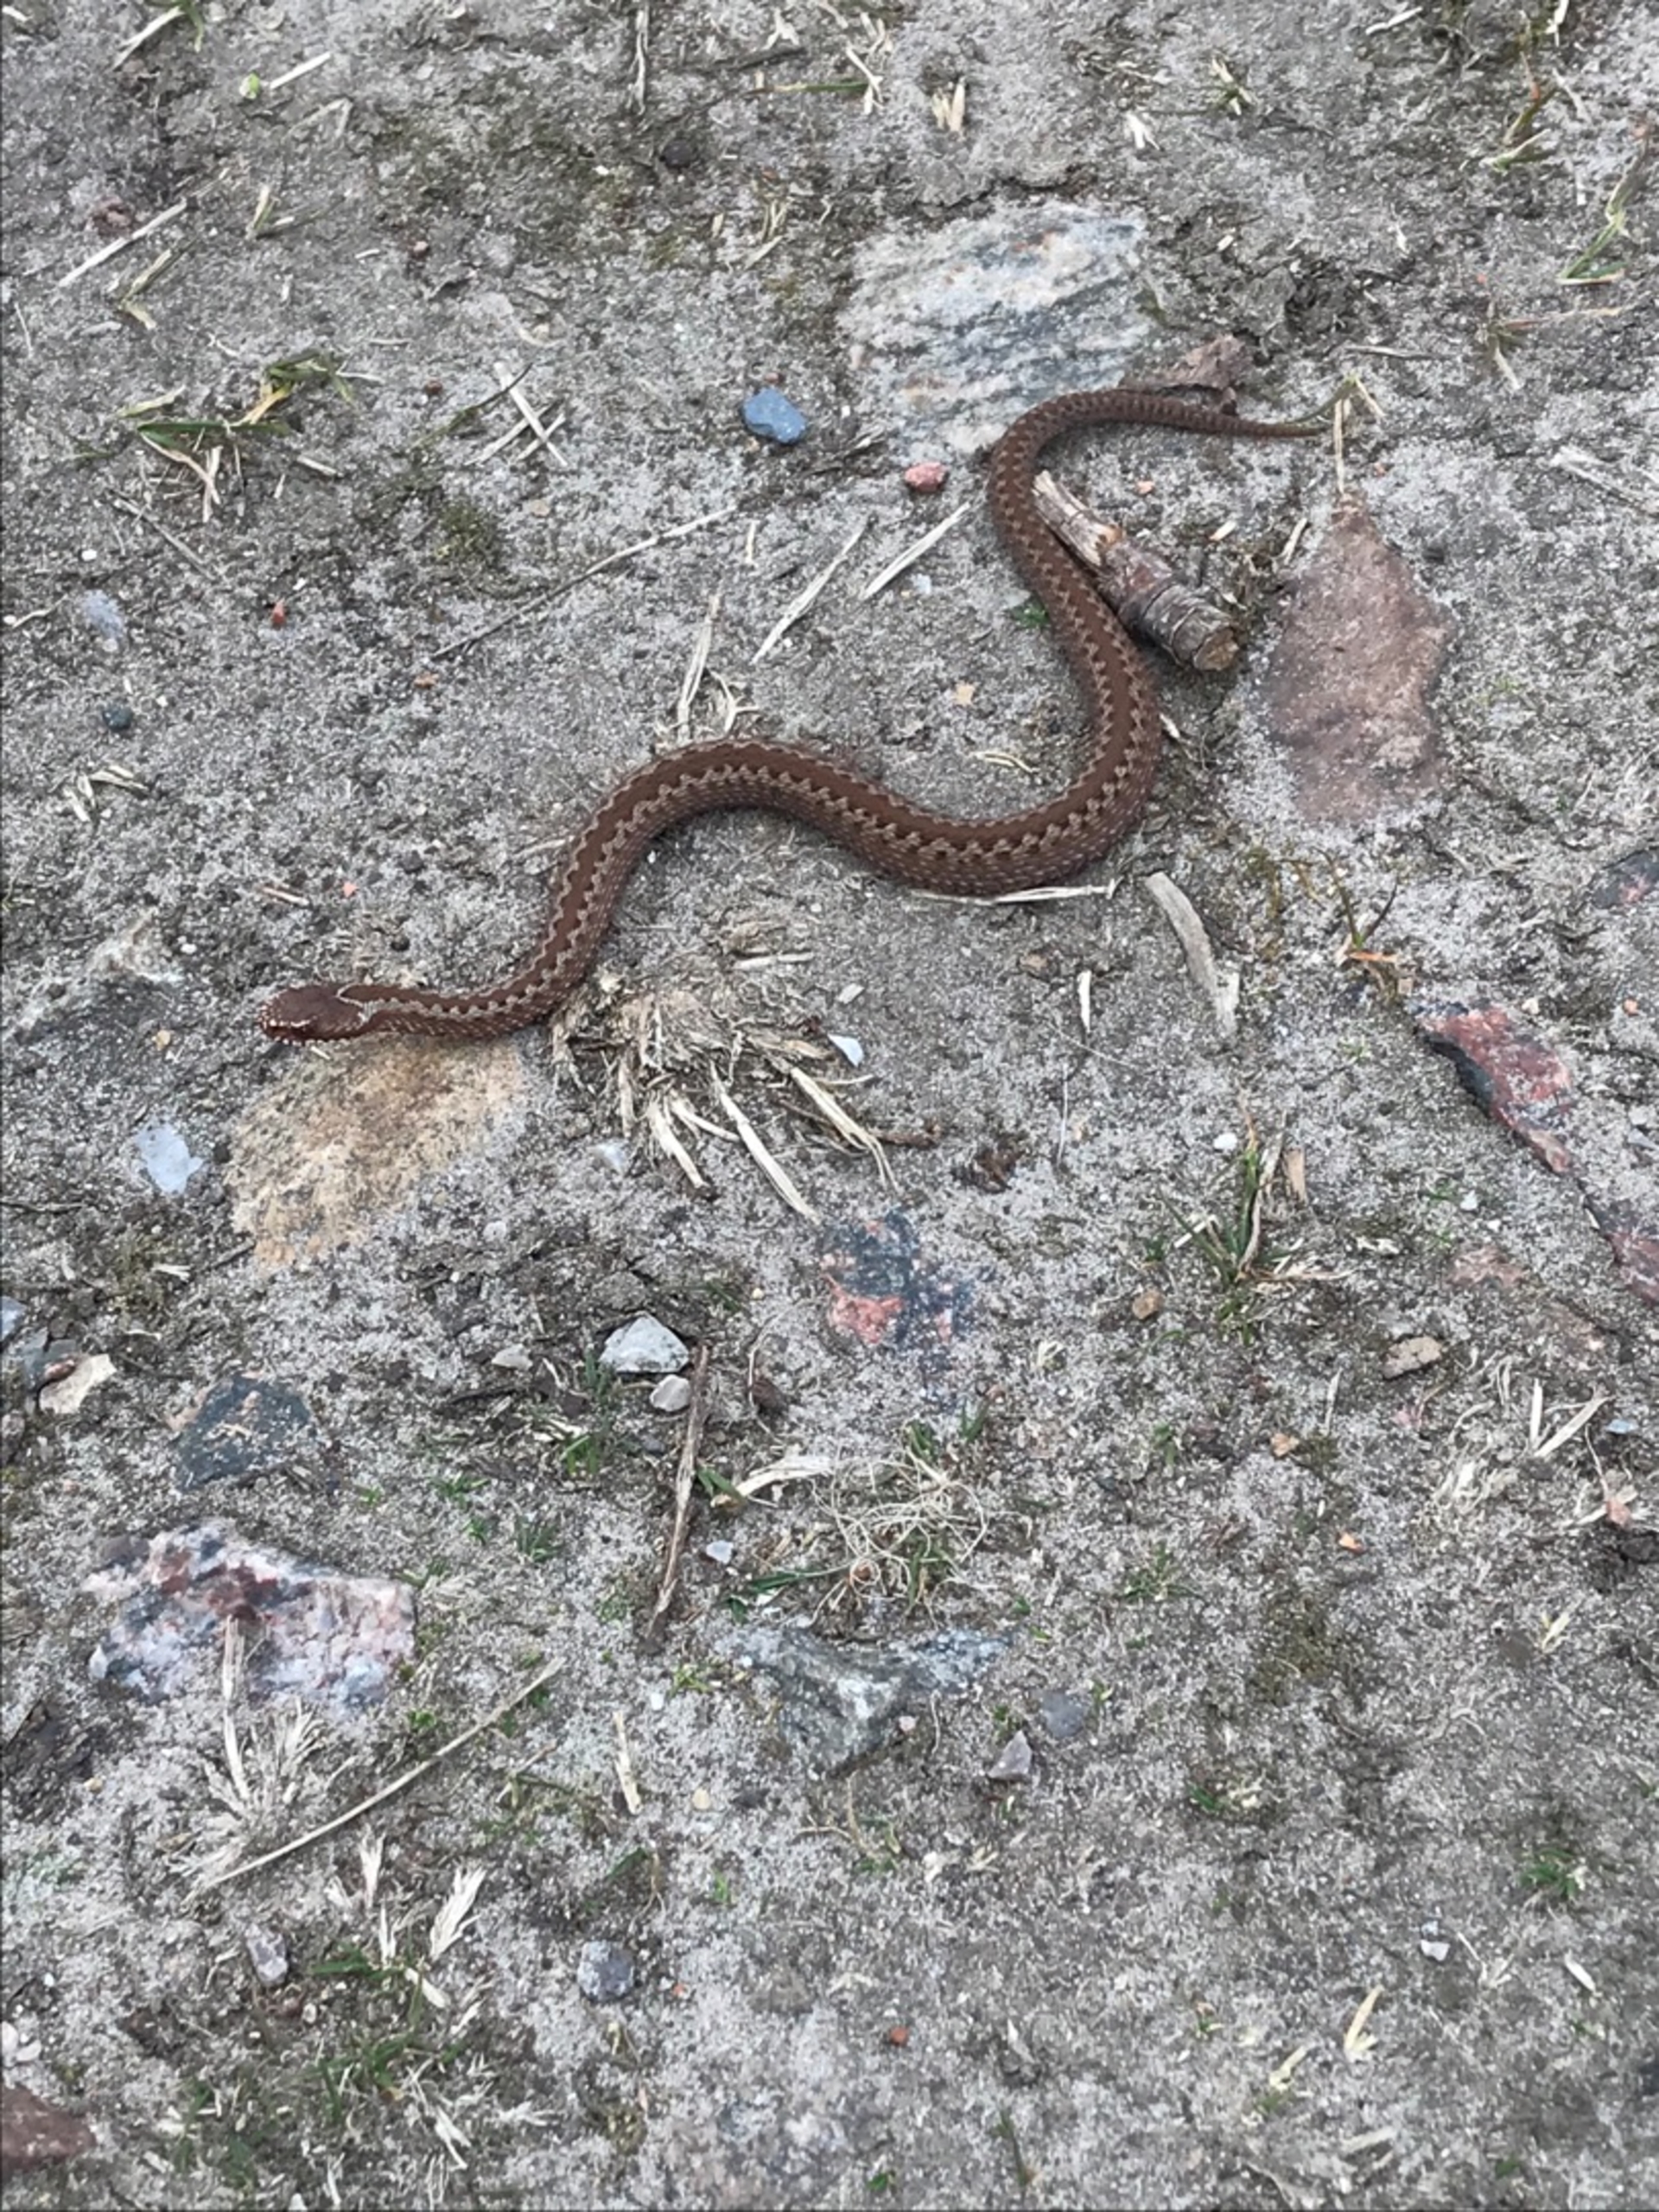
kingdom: Animalia
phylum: Chordata
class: Squamata
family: Viperidae
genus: Vipera
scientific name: Vipera berus
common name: Hugorm
